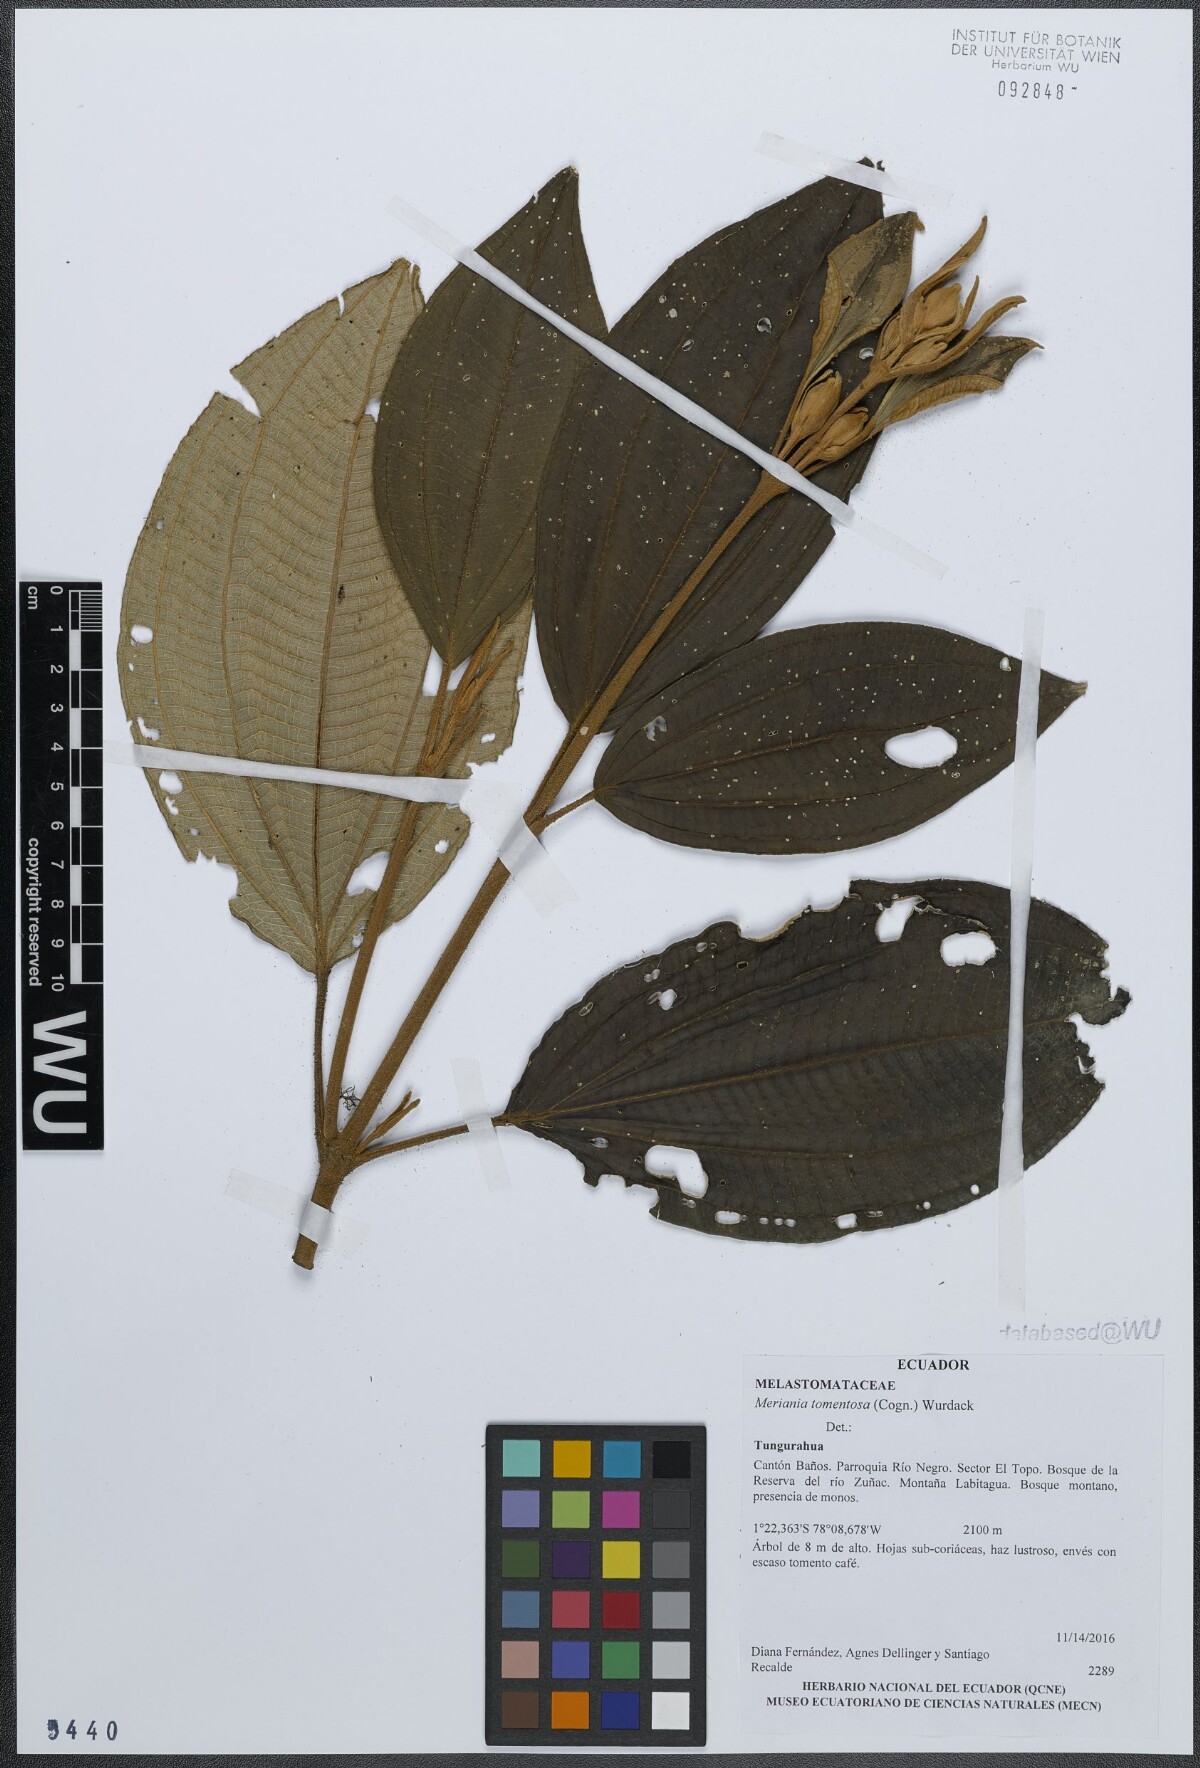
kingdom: Plantae
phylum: Tracheophyta
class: Magnoliopsida
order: Myrtales
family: Melastomataceae
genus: Meriania
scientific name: Meriania tomentosa
